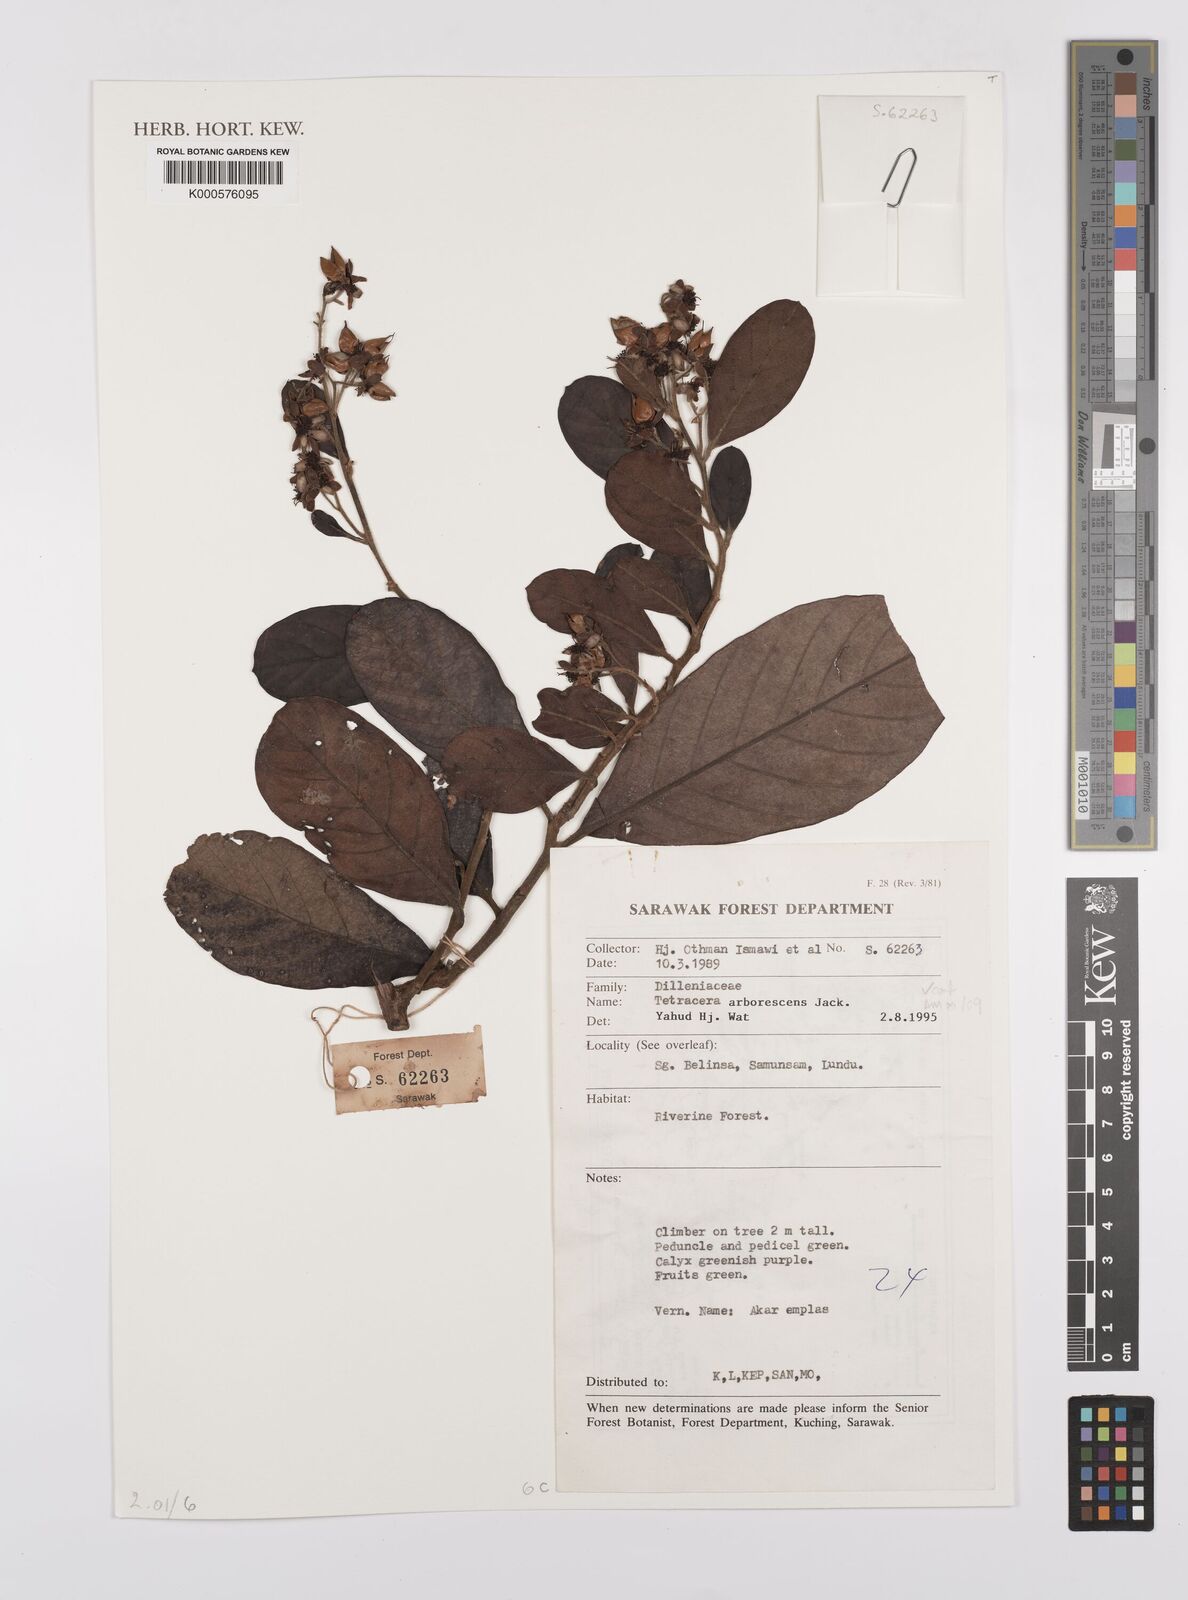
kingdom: Plantae
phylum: Tracheophyta
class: Magnoliopsida
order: Dilleniales
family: Dilleniaceae
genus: Tetracera
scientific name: Tetracera arborescens
